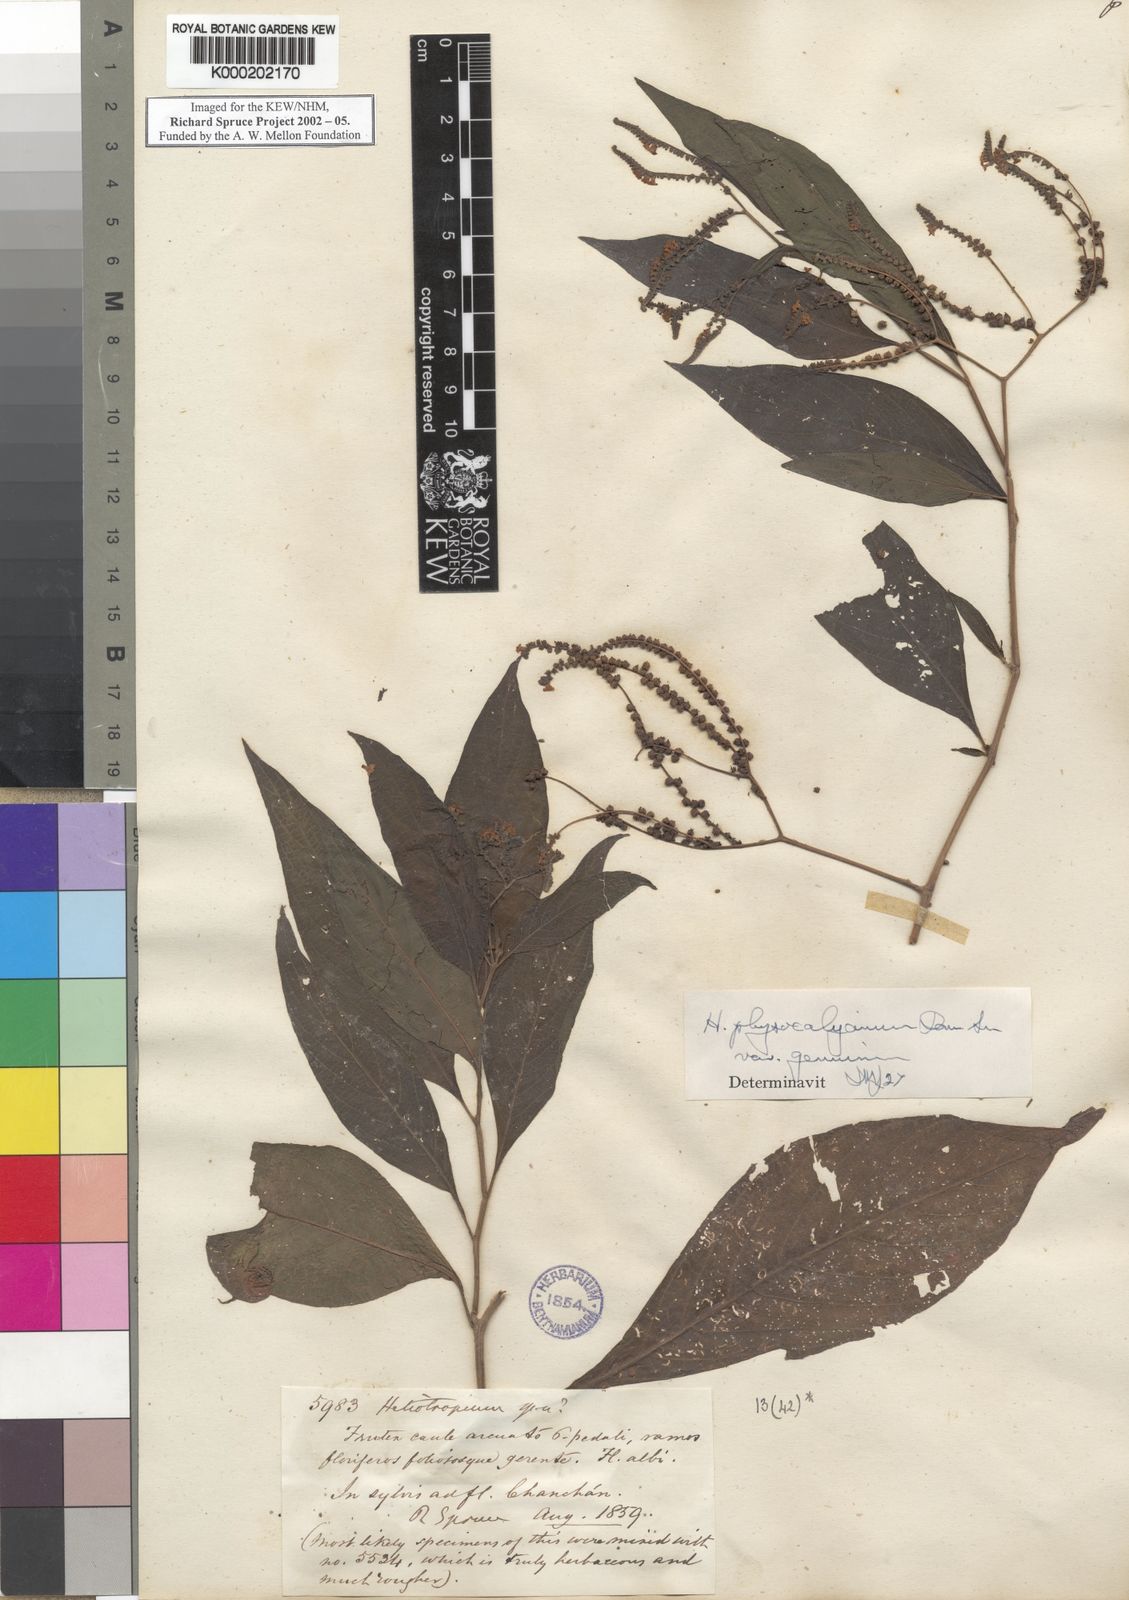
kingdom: Plantae
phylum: Tracheophyta
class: Magnoliopsida
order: Boraginales
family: Heliotropiaceae
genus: Heliotropium
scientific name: Heliotropium rufipilum
